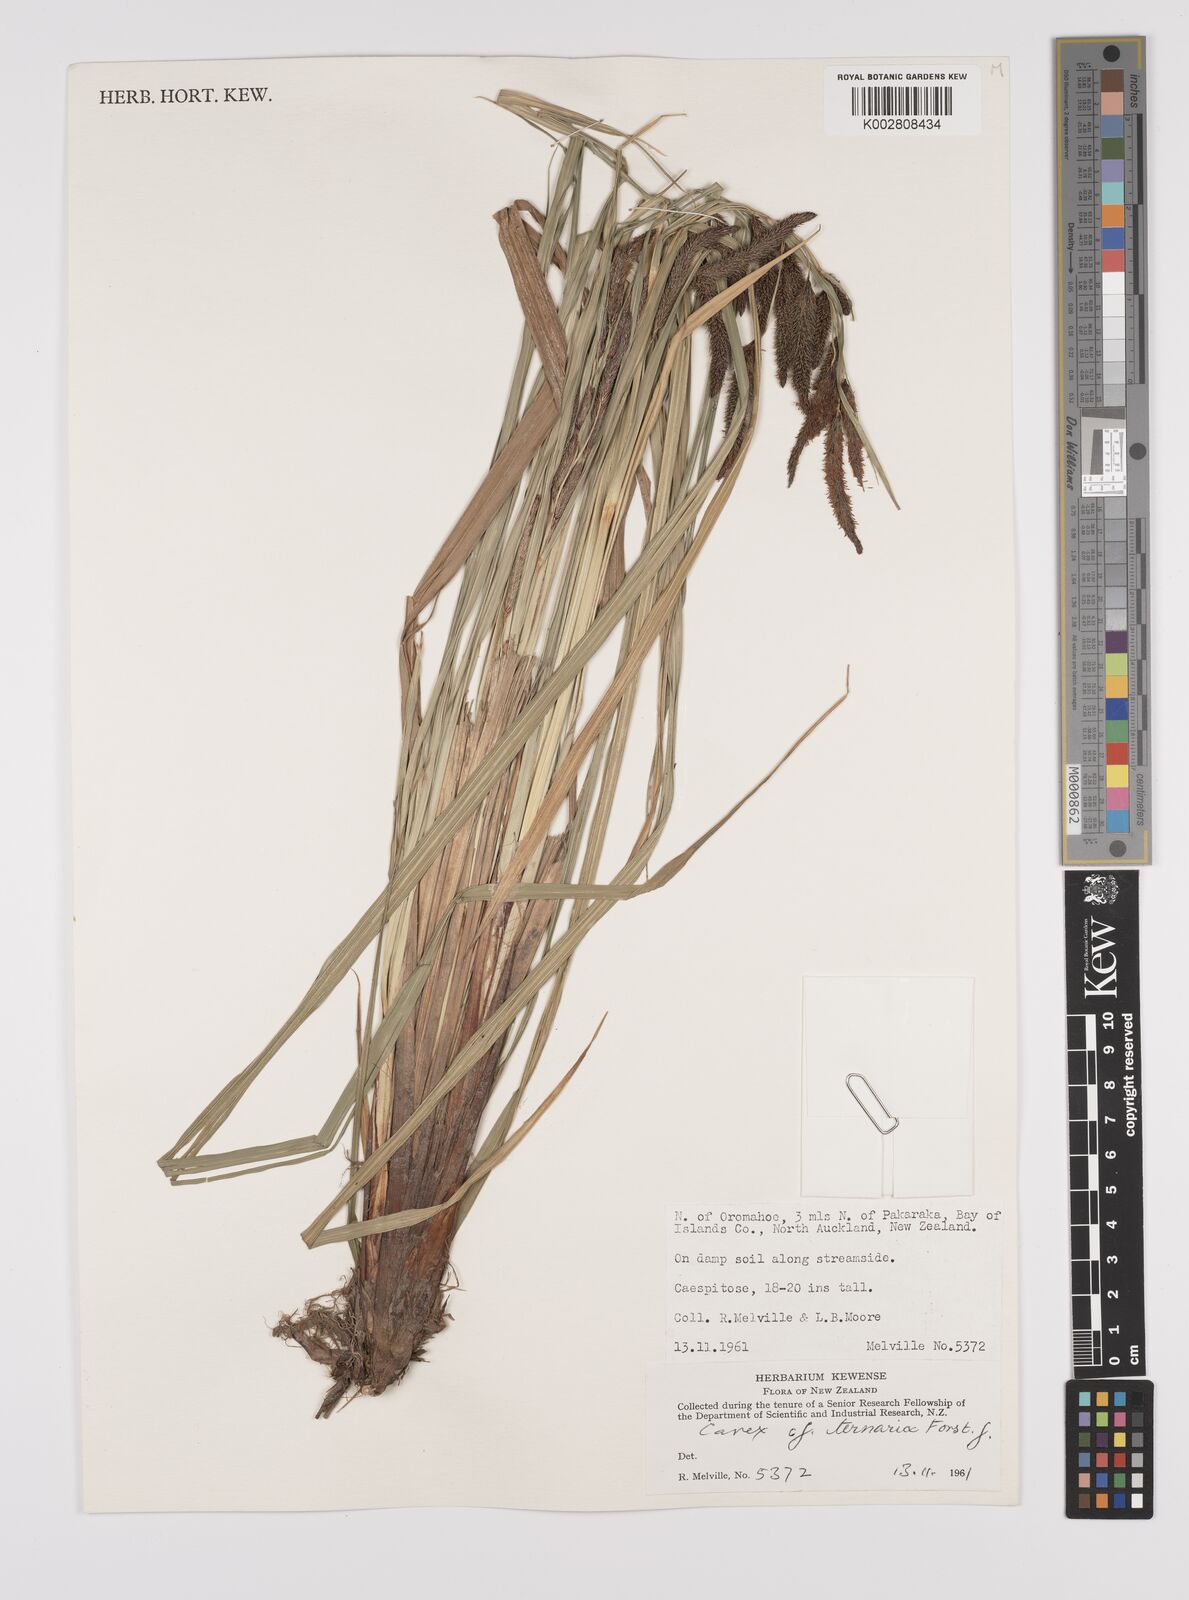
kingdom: Plantae
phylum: Tracheophyta
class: Liliopsida
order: Poales
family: Cyperaceae
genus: Carex
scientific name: Carex
